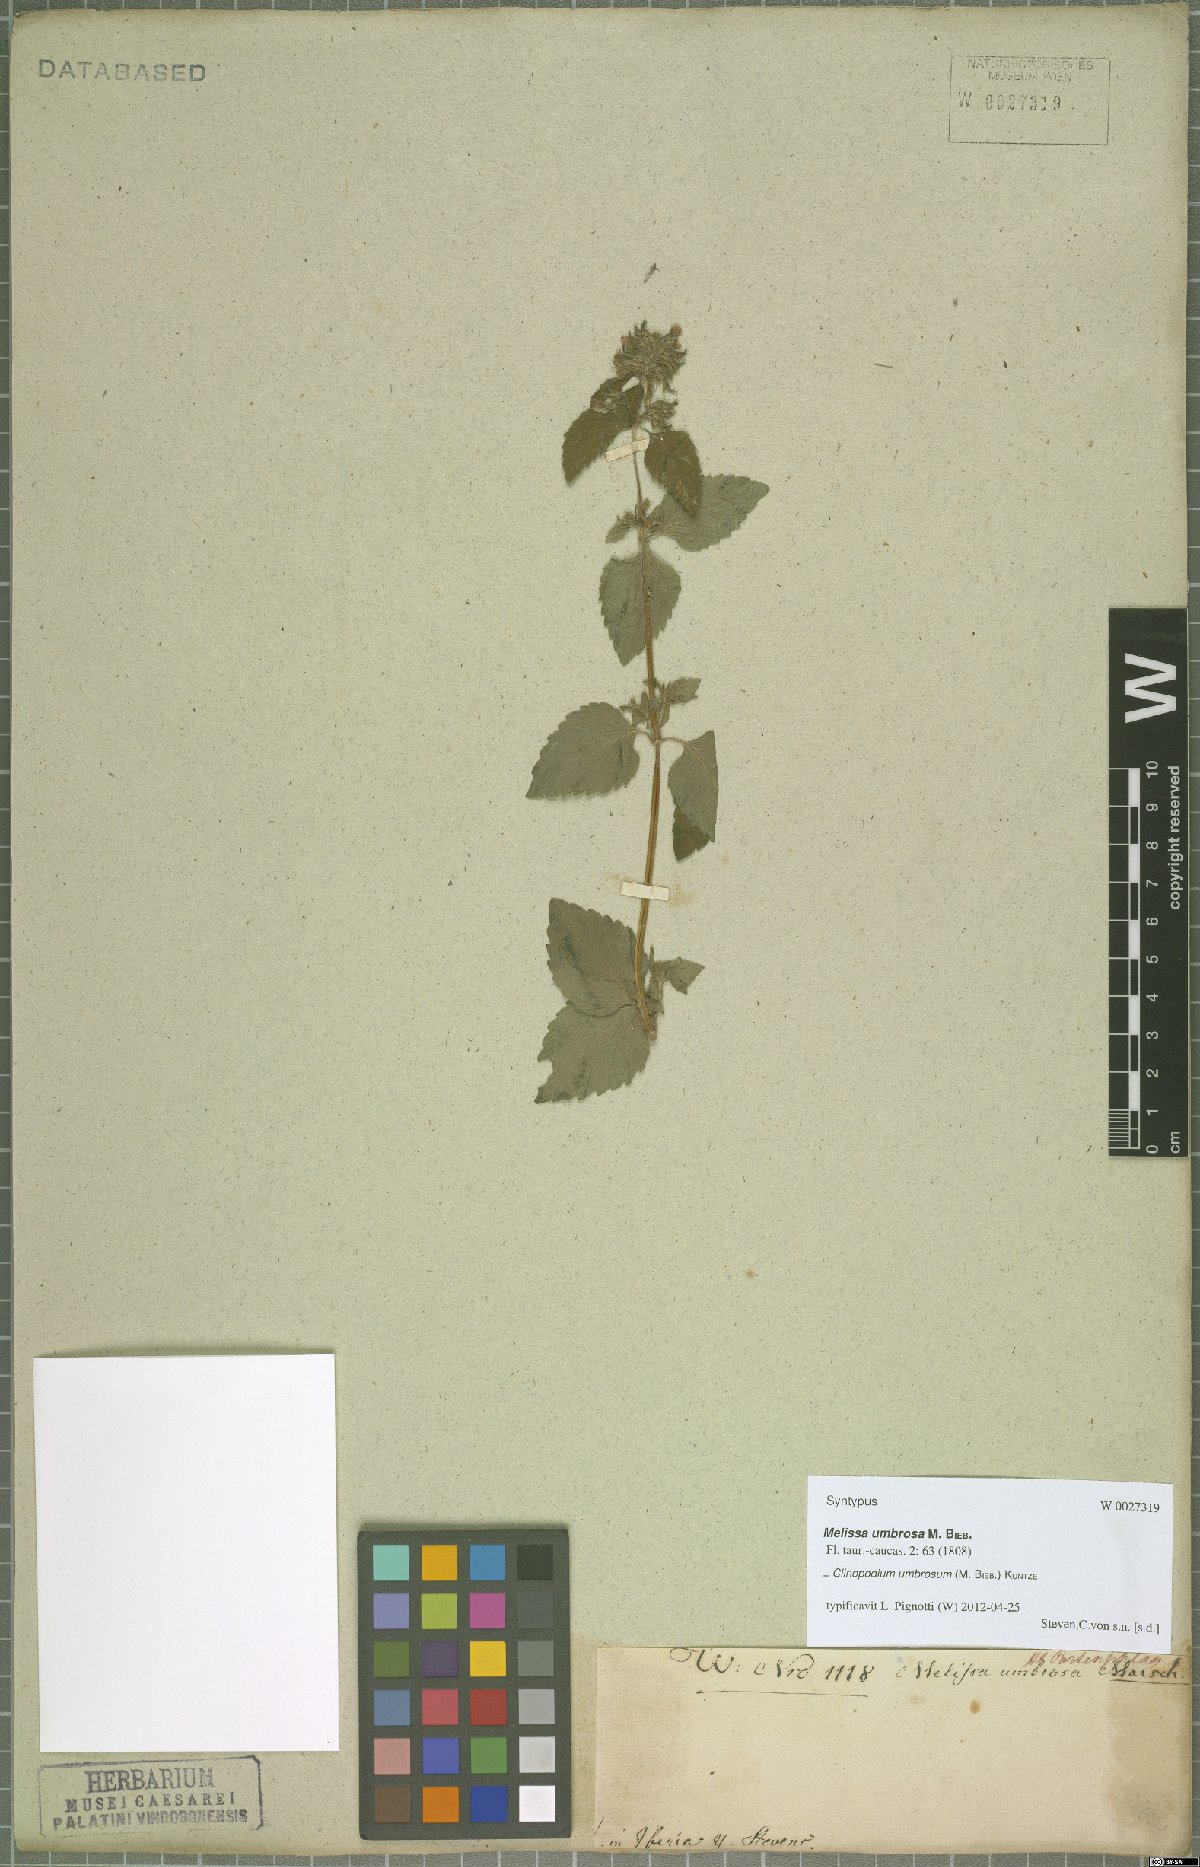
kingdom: Plantae
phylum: Tracheophyta
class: Magnoliopsida
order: Lamiales
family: Lamiaceae
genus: Clinopodium
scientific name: Clinopodium umbrosum
